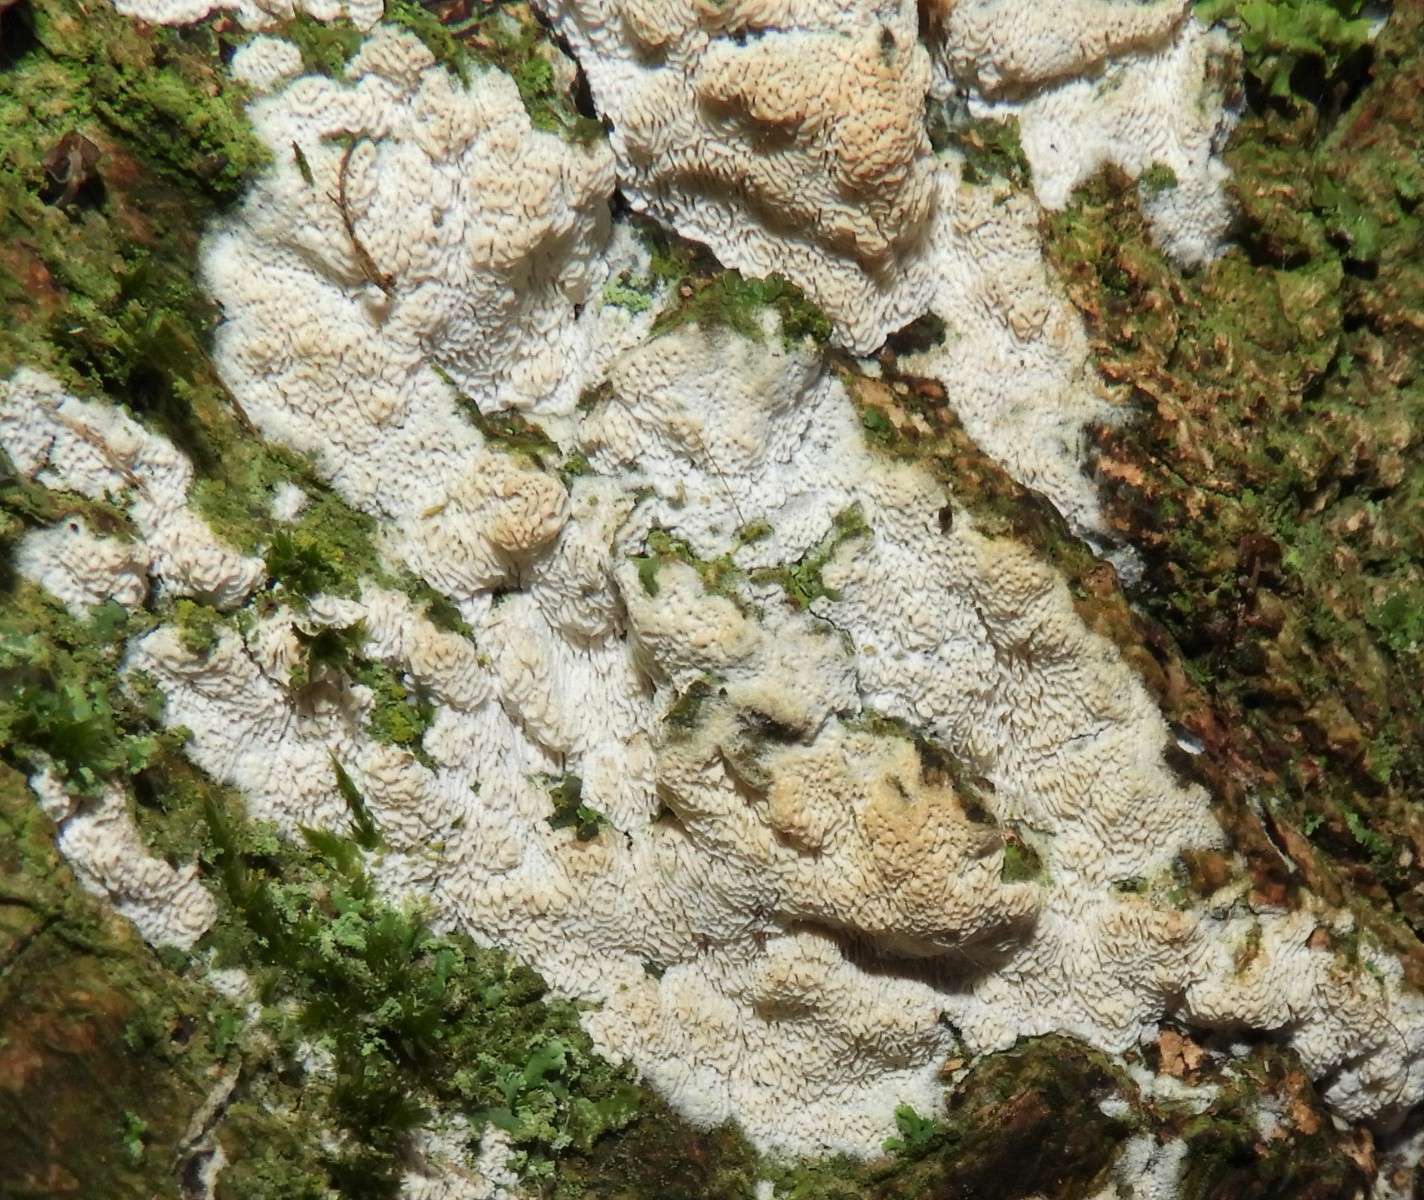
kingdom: Fungi
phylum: Basidiomycota
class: Agaricomycetes
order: Hymenochaetales
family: Schizoporaceae
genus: Xylodon
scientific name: Xylodon subtropicus
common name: labyrint-tandsvamp
